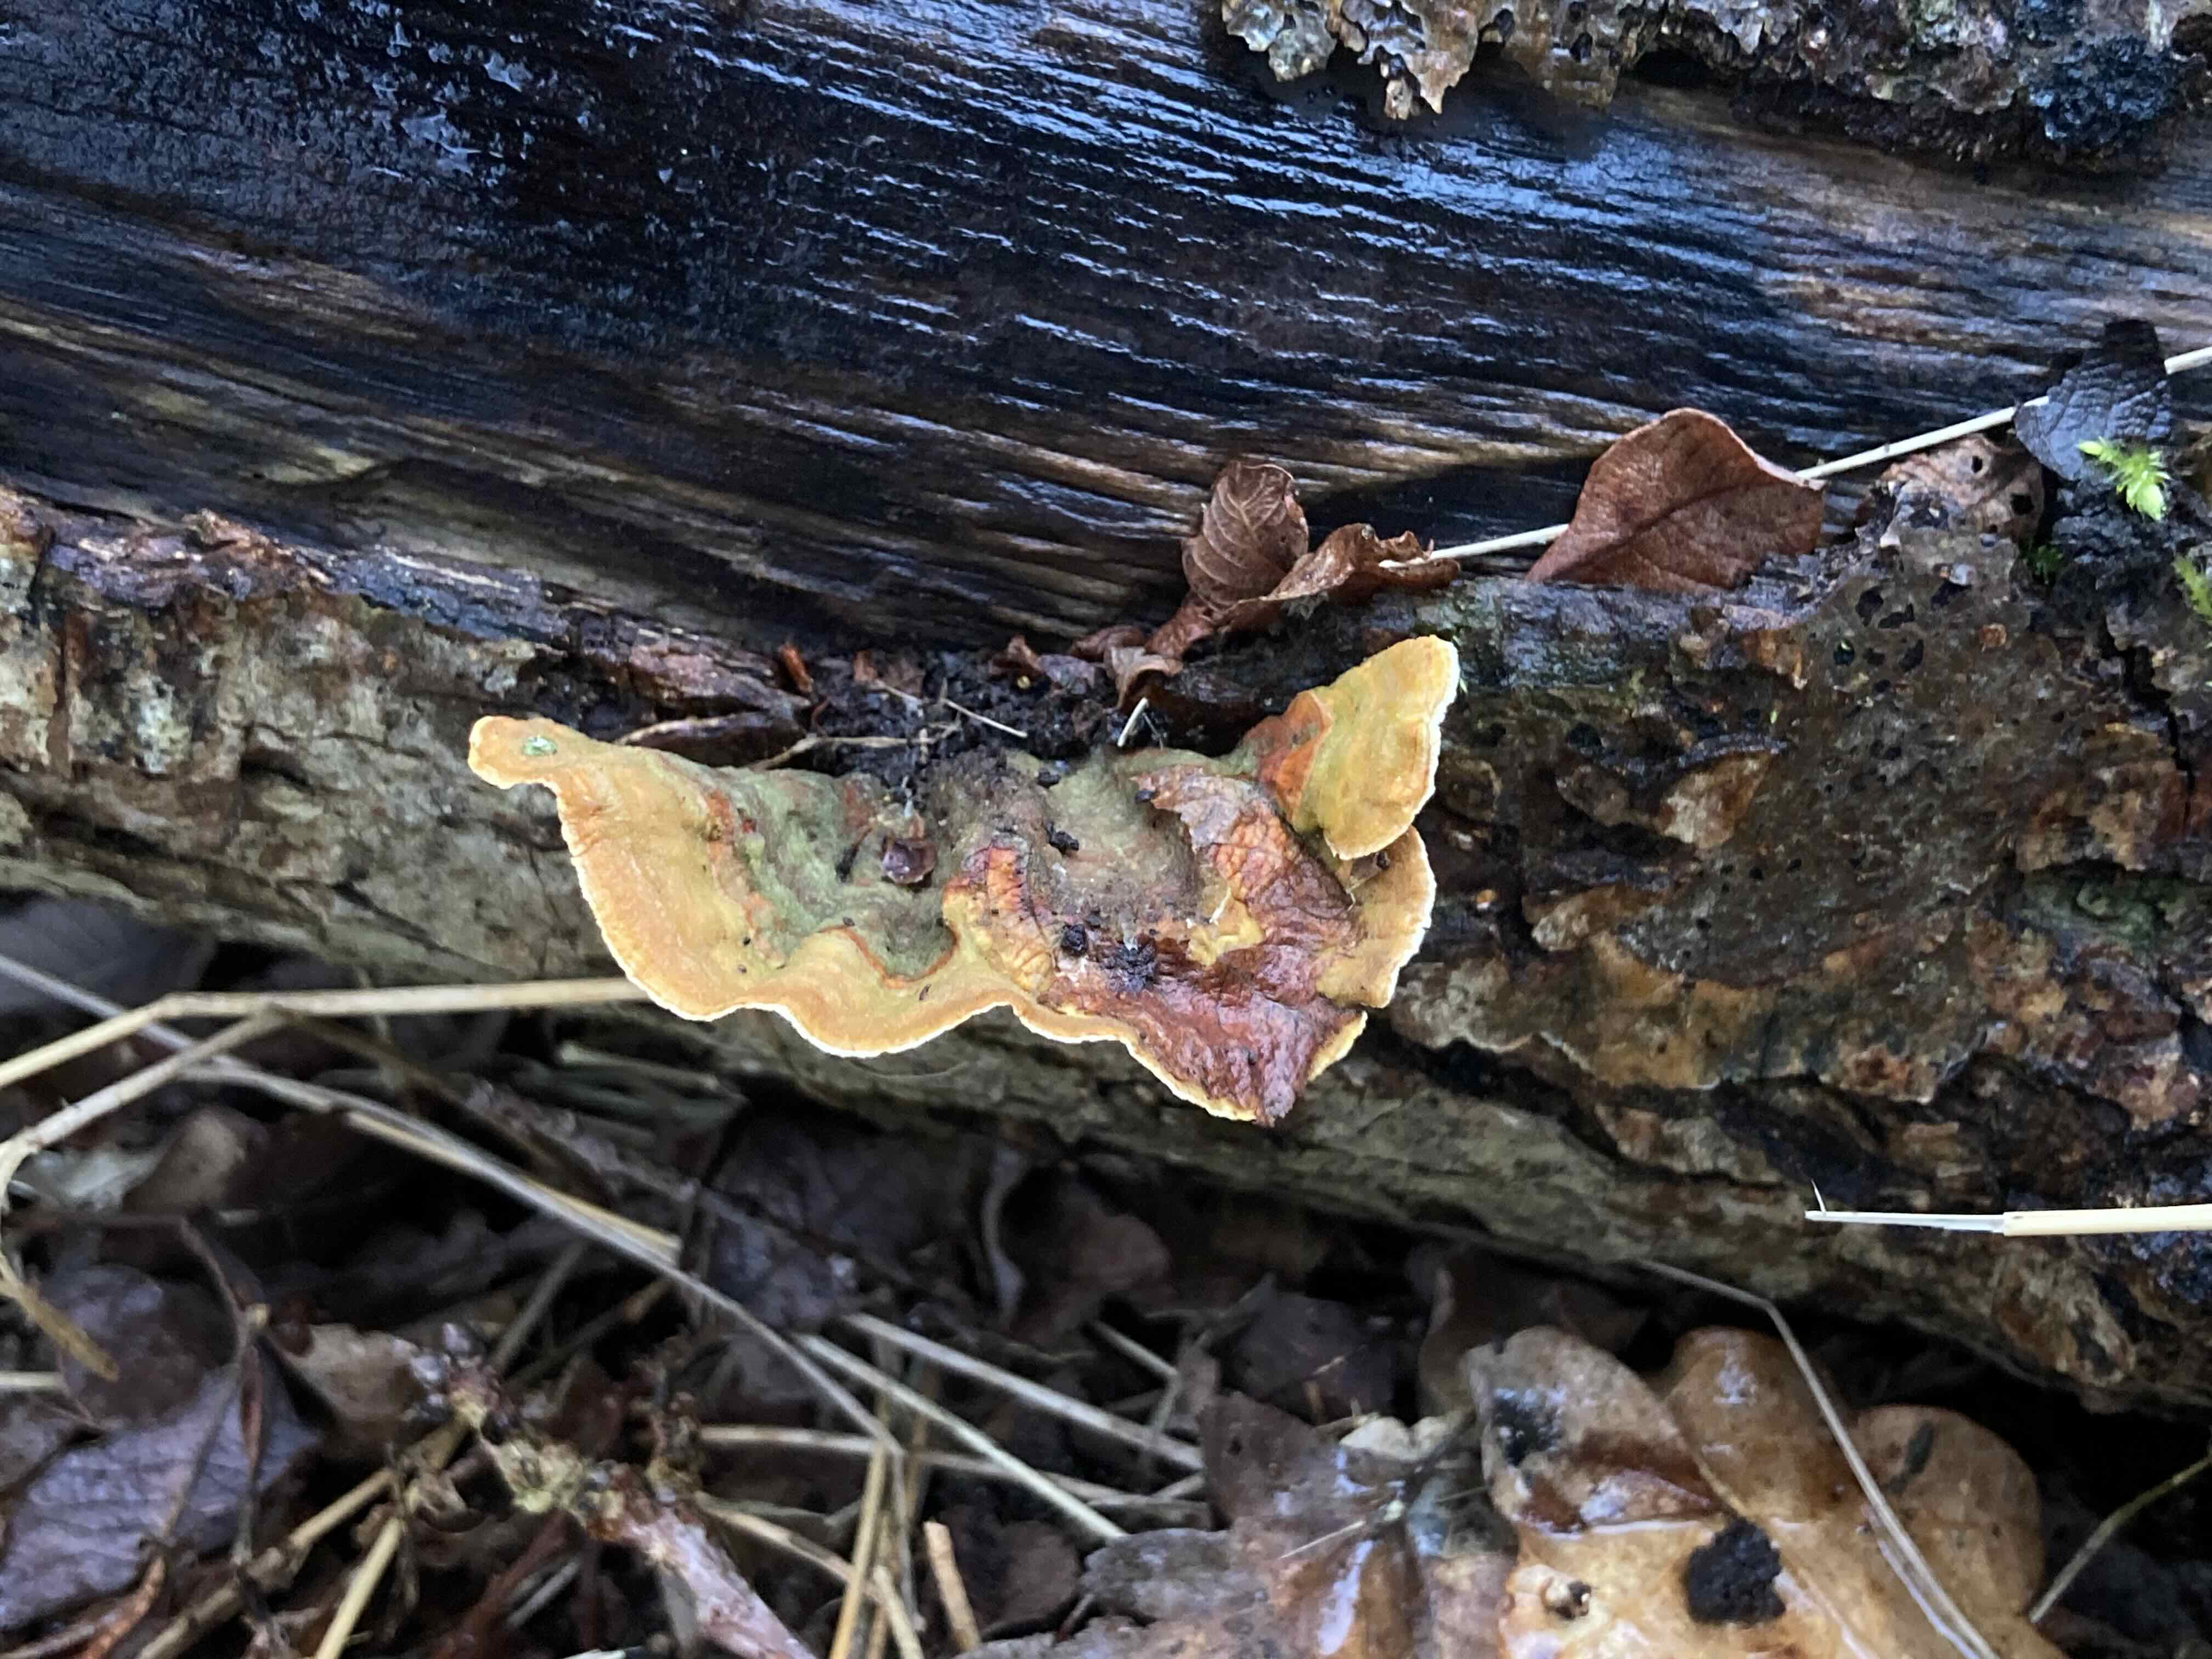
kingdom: Fungi
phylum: Basidiomycota
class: Agaricomycetes
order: Russulales
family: Stereaceae
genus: Stereum
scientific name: Stereum subtomentosum
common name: smuk lædersvamp
